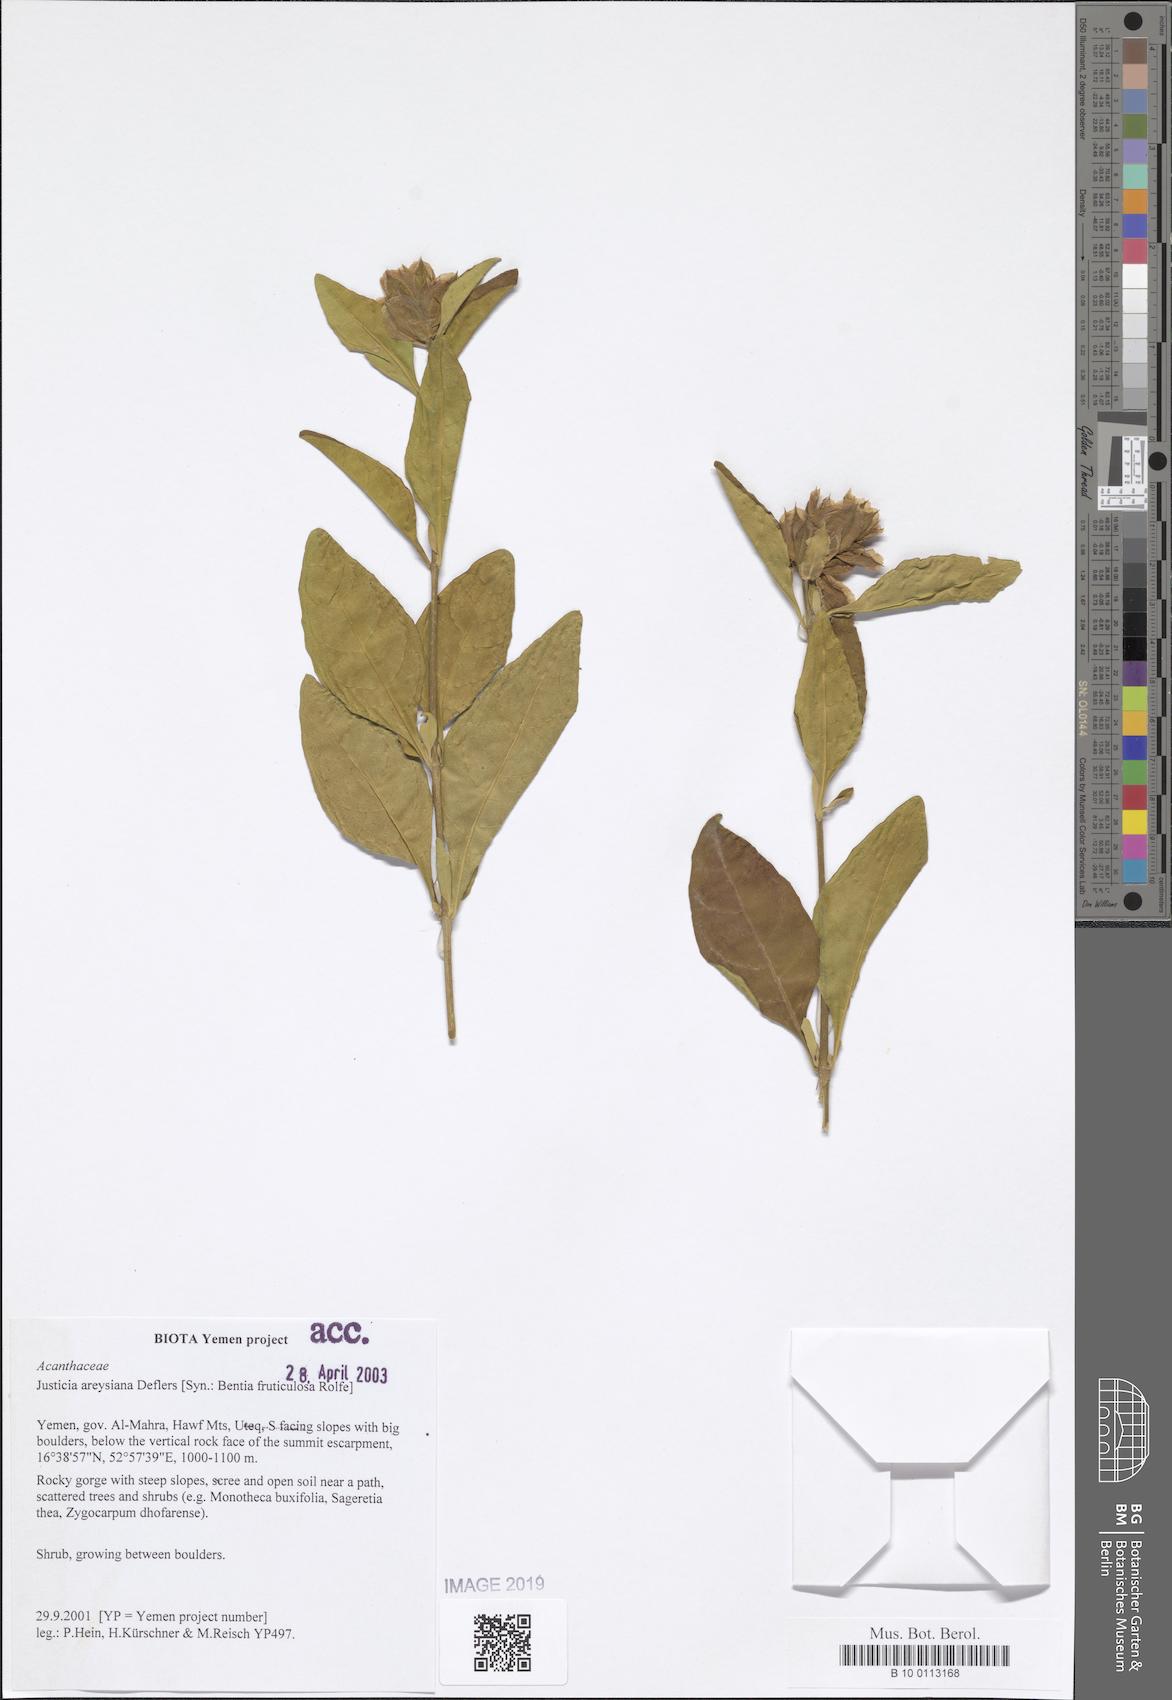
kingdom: Plantae
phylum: Tracheophyta
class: Magnoliopsida
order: Lamiales
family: Acanthaceae
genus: Justicia
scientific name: Justicia areysiana
